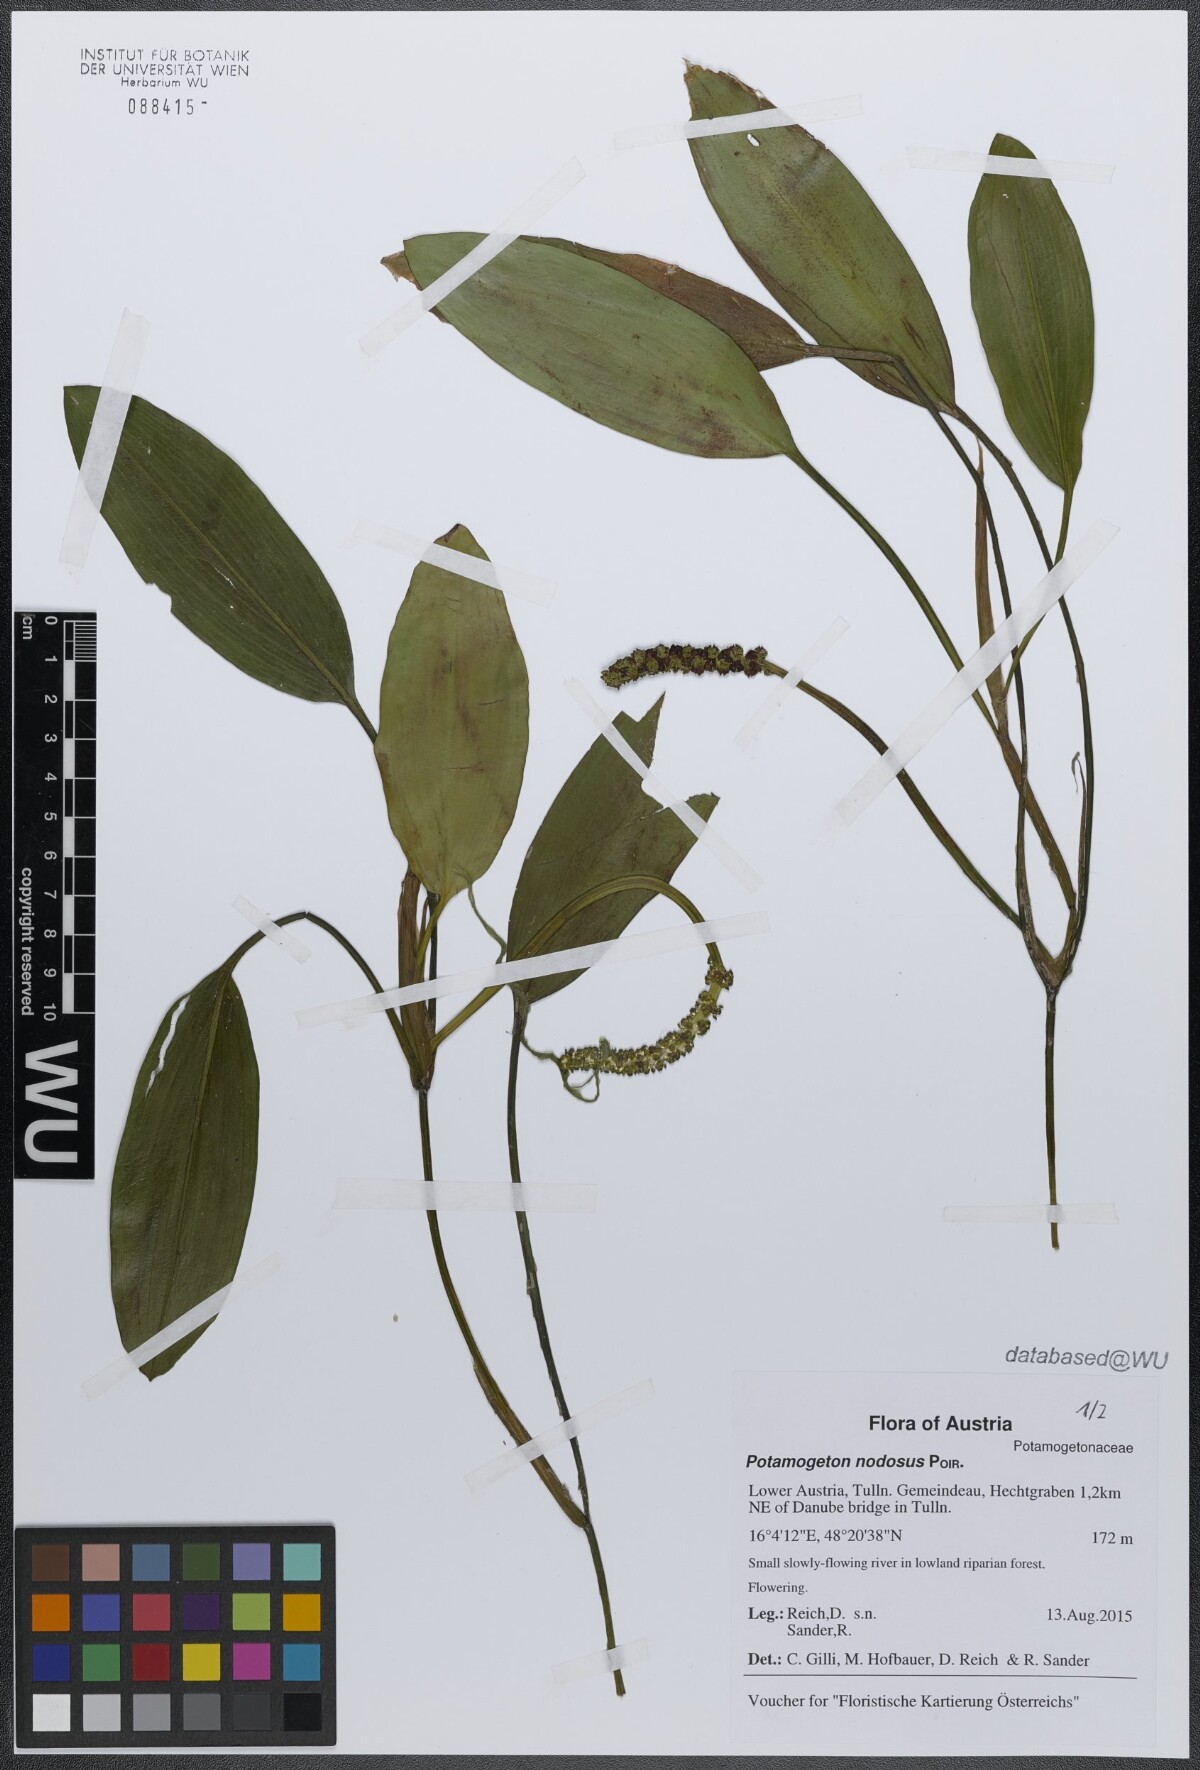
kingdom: Plantae
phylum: Tracheophyta
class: Liliopsida
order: Alismatales
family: Potamogetonaceae
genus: Potamogeton
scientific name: Potamogeton nodosus
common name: Loddon pondweed
